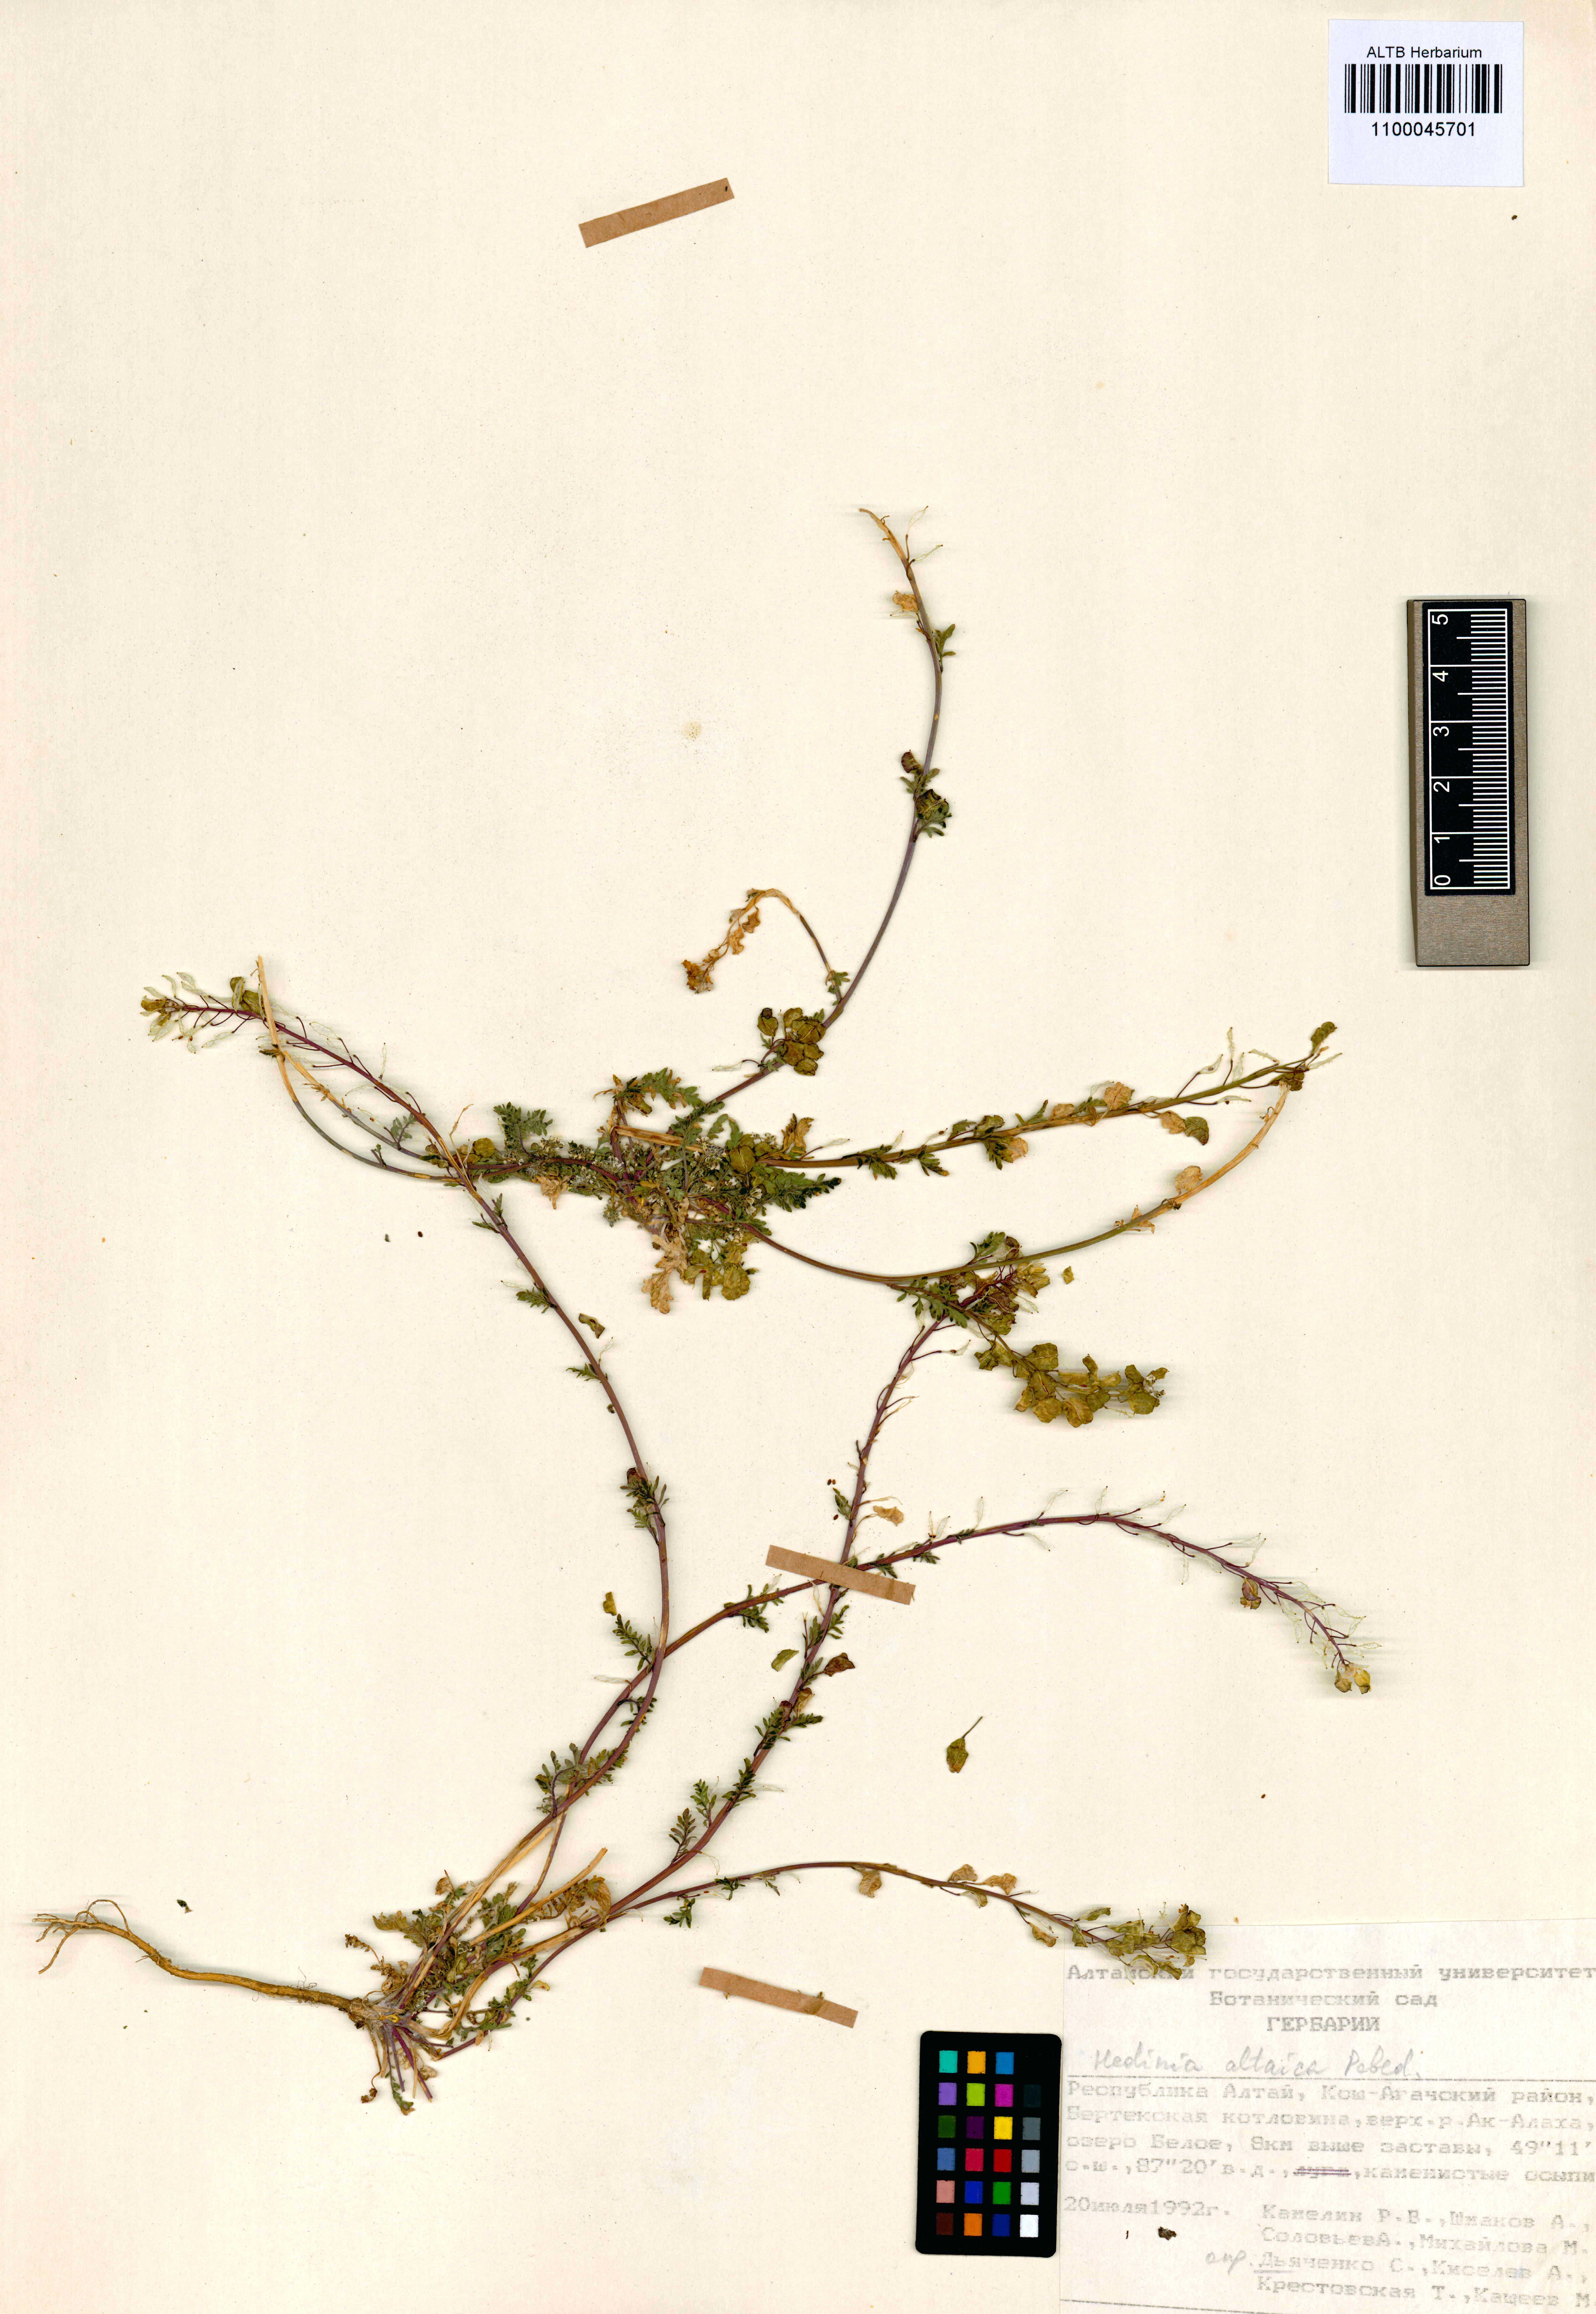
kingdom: Plantae
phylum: Tracheophyta
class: Magnoliopsida
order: Brassicales
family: Brassicaceae
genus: Smelowskia
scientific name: Smelowskia altaica
